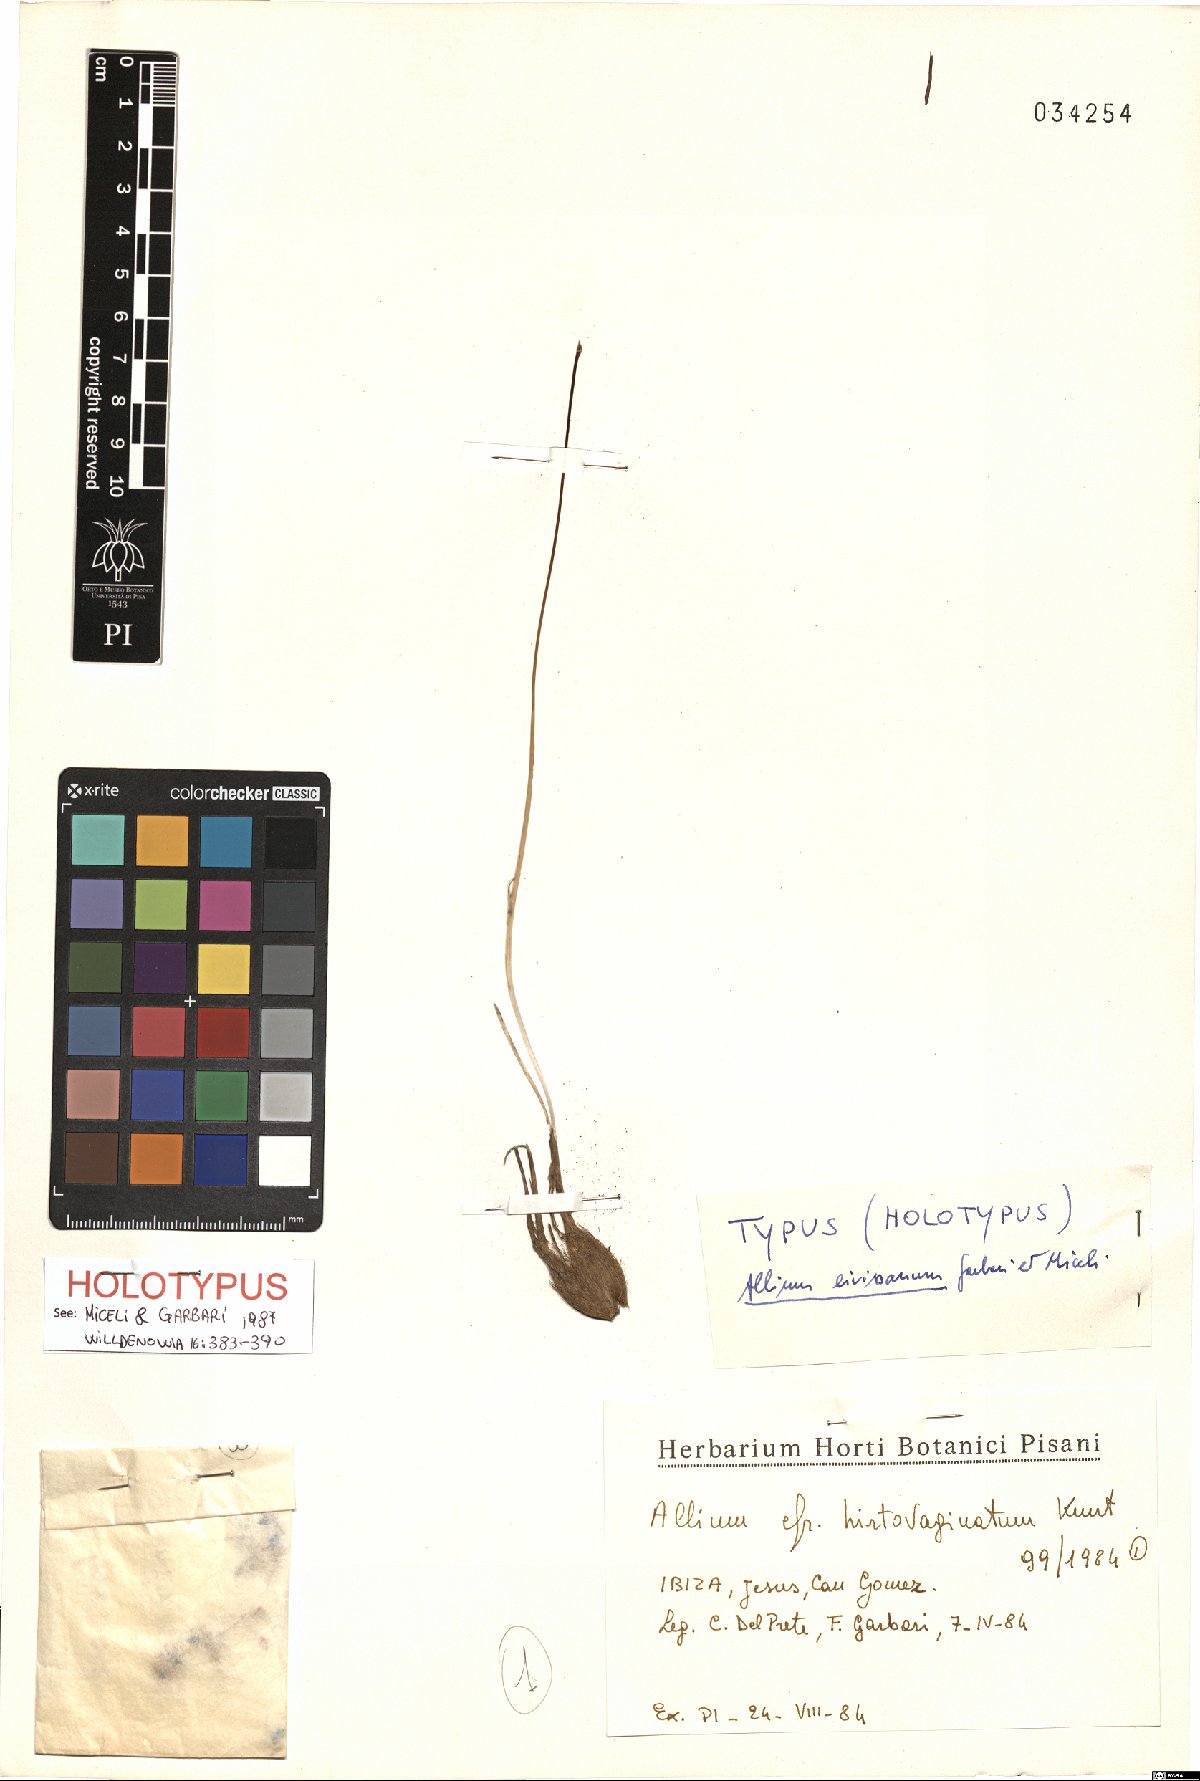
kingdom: Plantae
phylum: Tracheophyta
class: Liliopsida
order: Asparagales
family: Amaryllidaceae
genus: Allium
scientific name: Allium cupani
